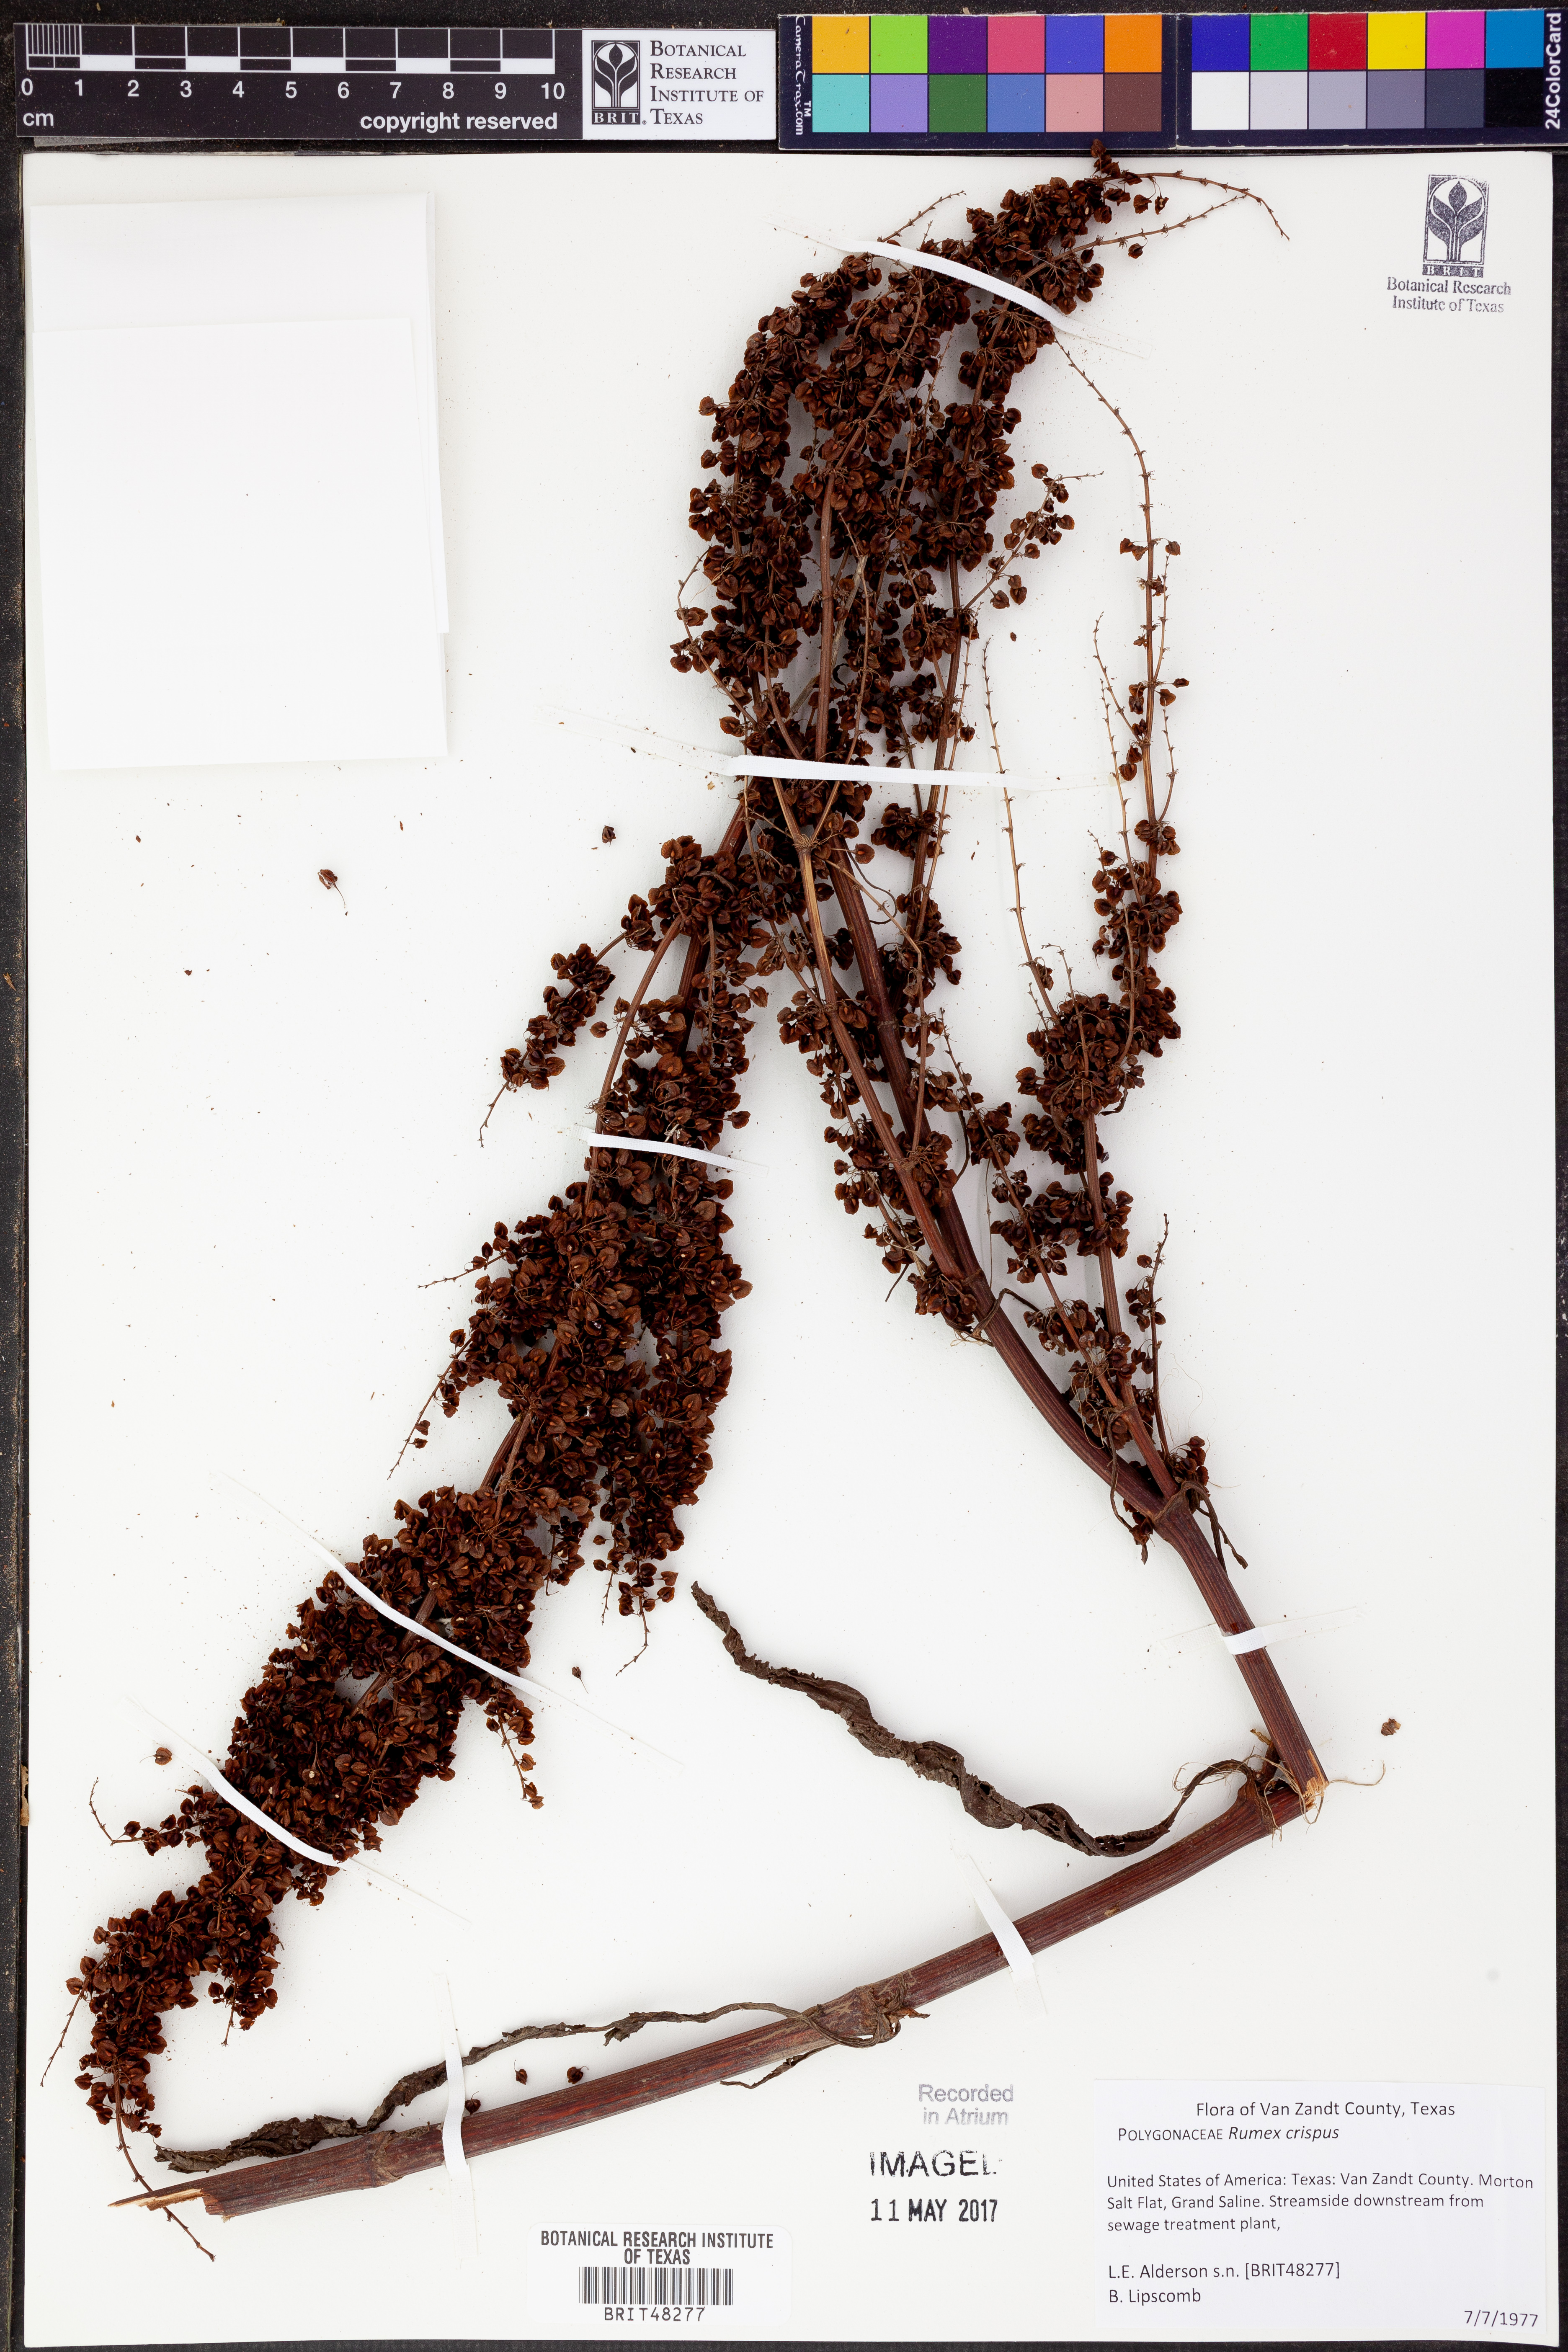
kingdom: Plantae
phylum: Tracheophyta
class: Magnoliopsida
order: Caryophyllales
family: Polygonaceae
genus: Rumex
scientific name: Rumex crispus
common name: Curled dock
